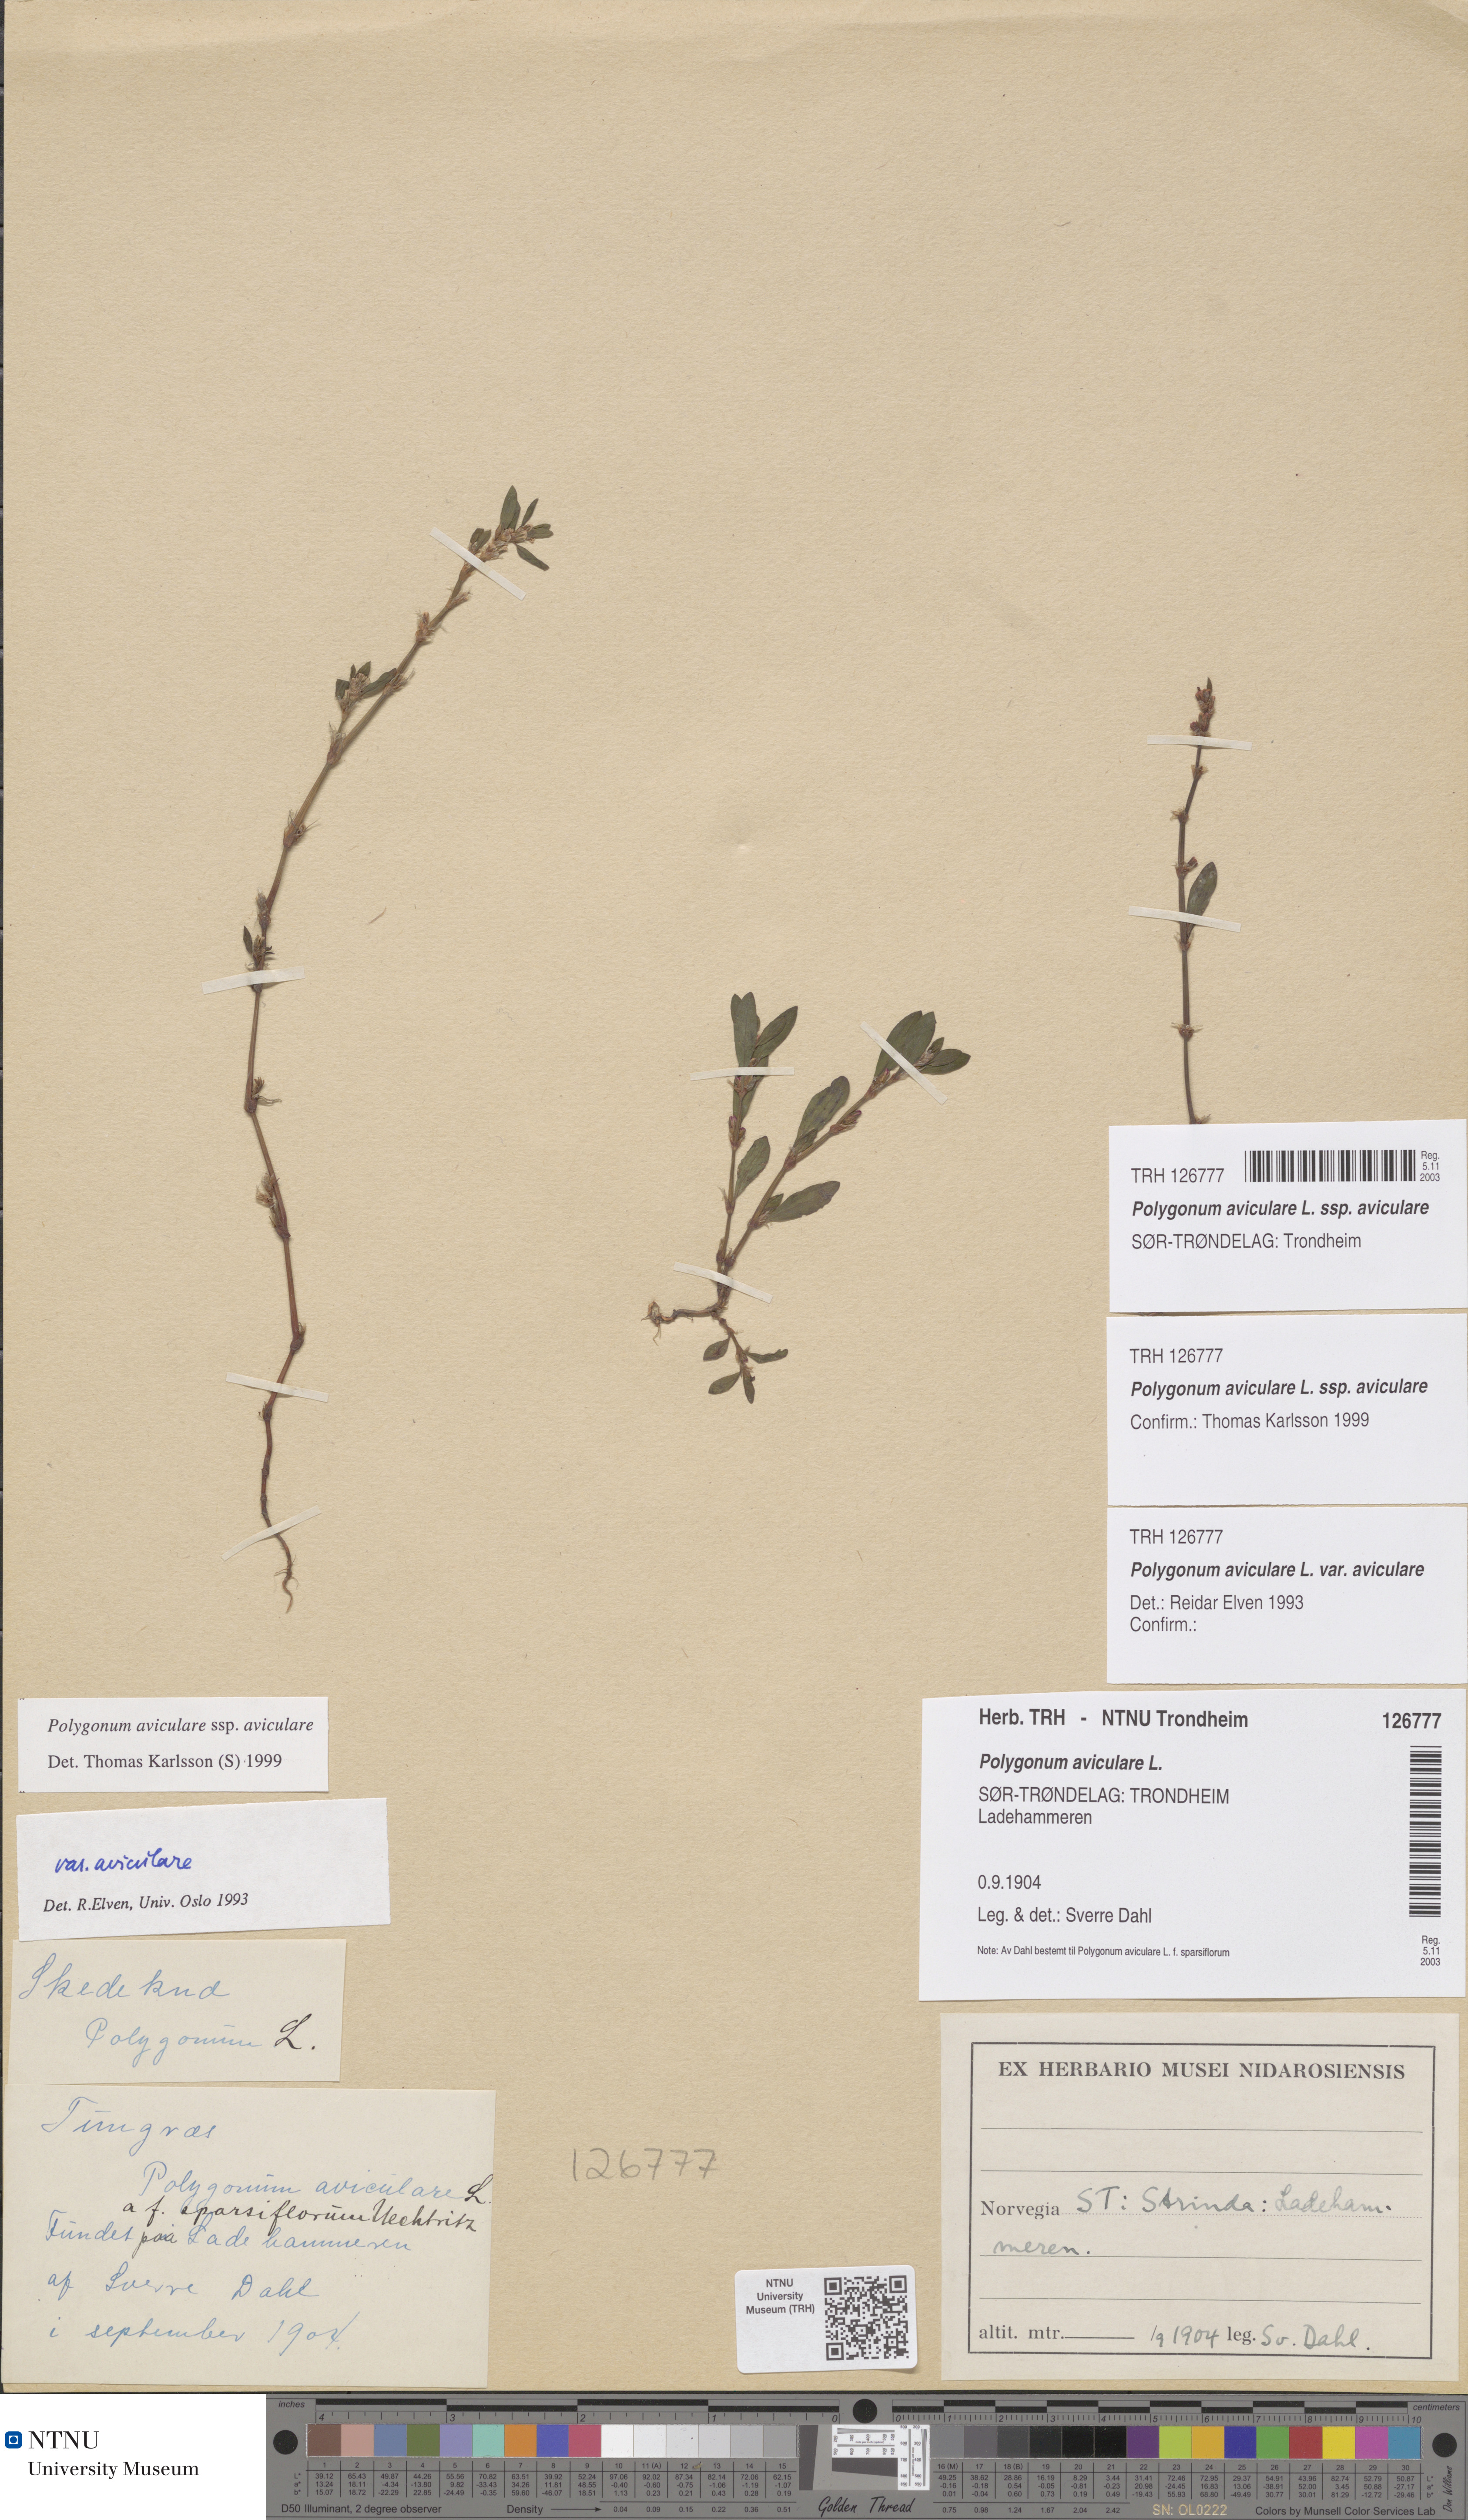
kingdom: Plantae
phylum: Tracheophyta
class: Magnoliopsida
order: Caryophyllales
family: Polygonaceae
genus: Polygonum
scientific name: Polygonum aviculare
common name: Prostrate knotweed
